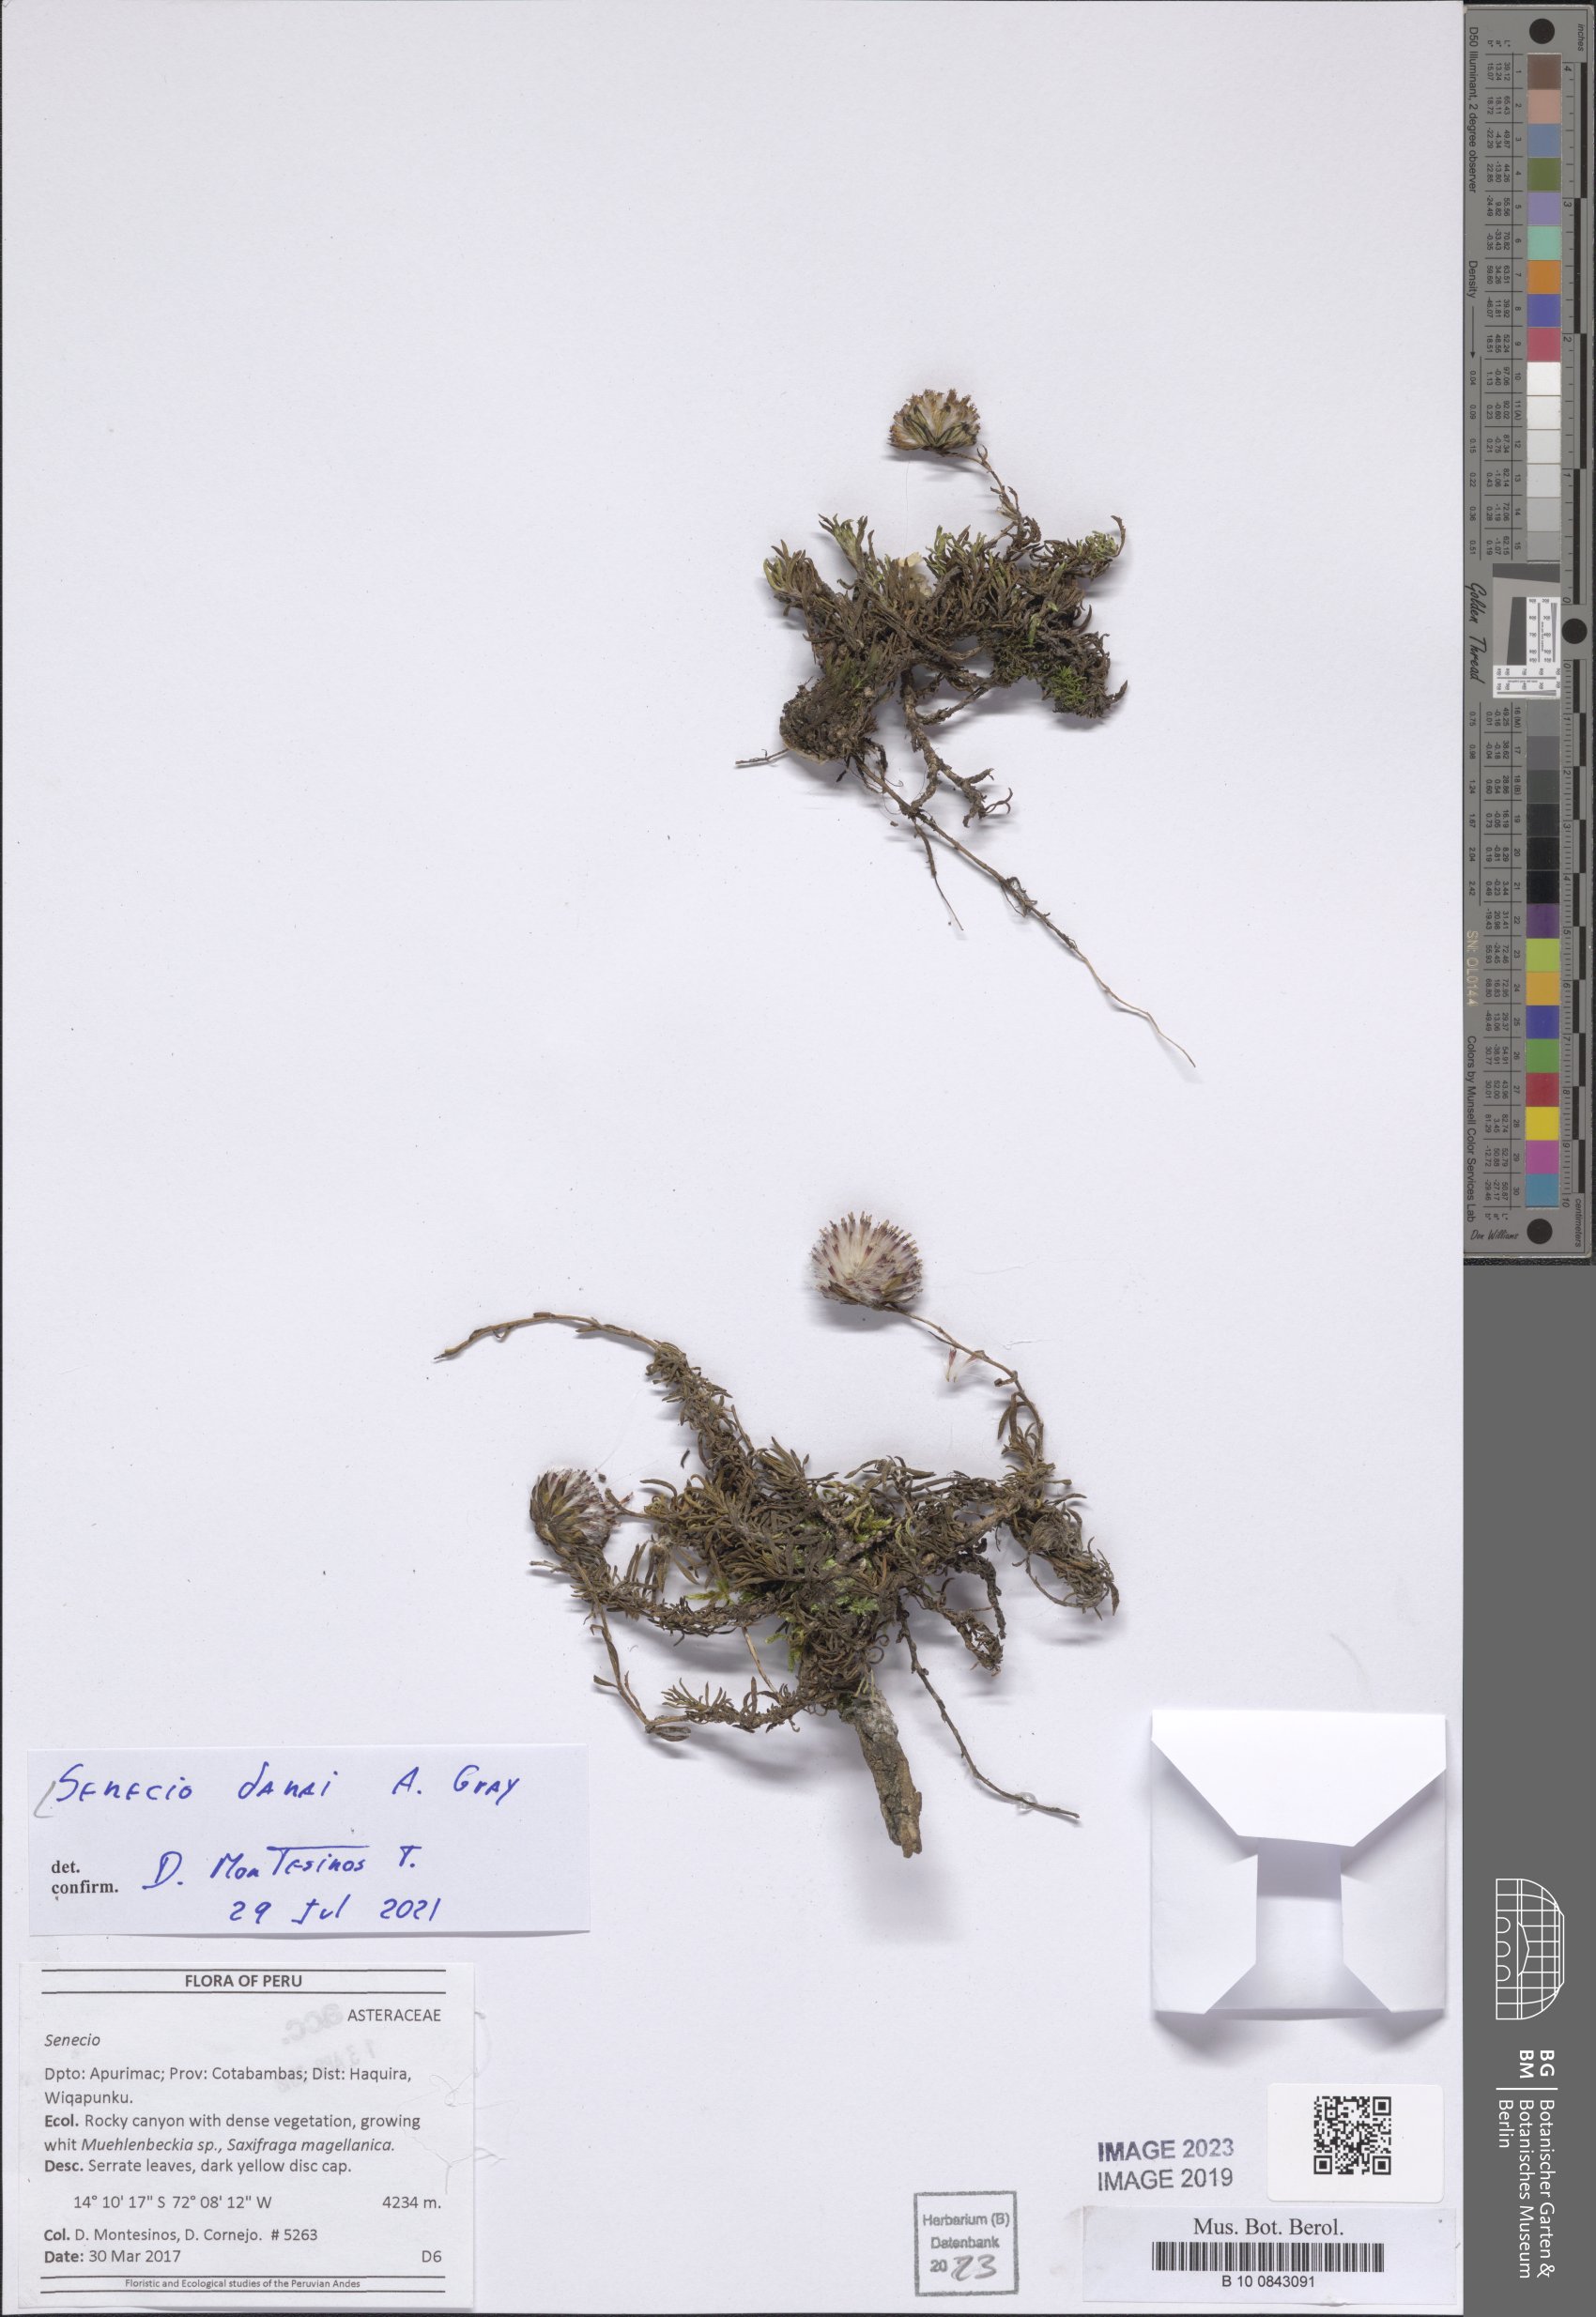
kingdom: Plantae
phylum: Tracheophyta
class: Magnoliopsida
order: Asterales
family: Asteraceae
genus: Senecio
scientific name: Senecio danai
